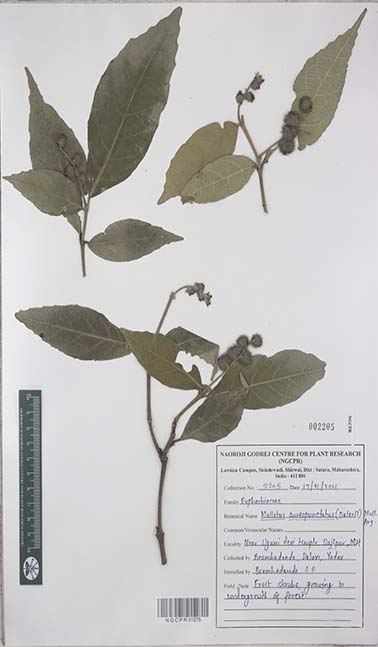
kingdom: Plantae
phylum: Tracheophyta
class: Magnoliopsida
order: Malpighiales
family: Euphorbiaceae
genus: Mallotus
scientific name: Mallotus resinosus
